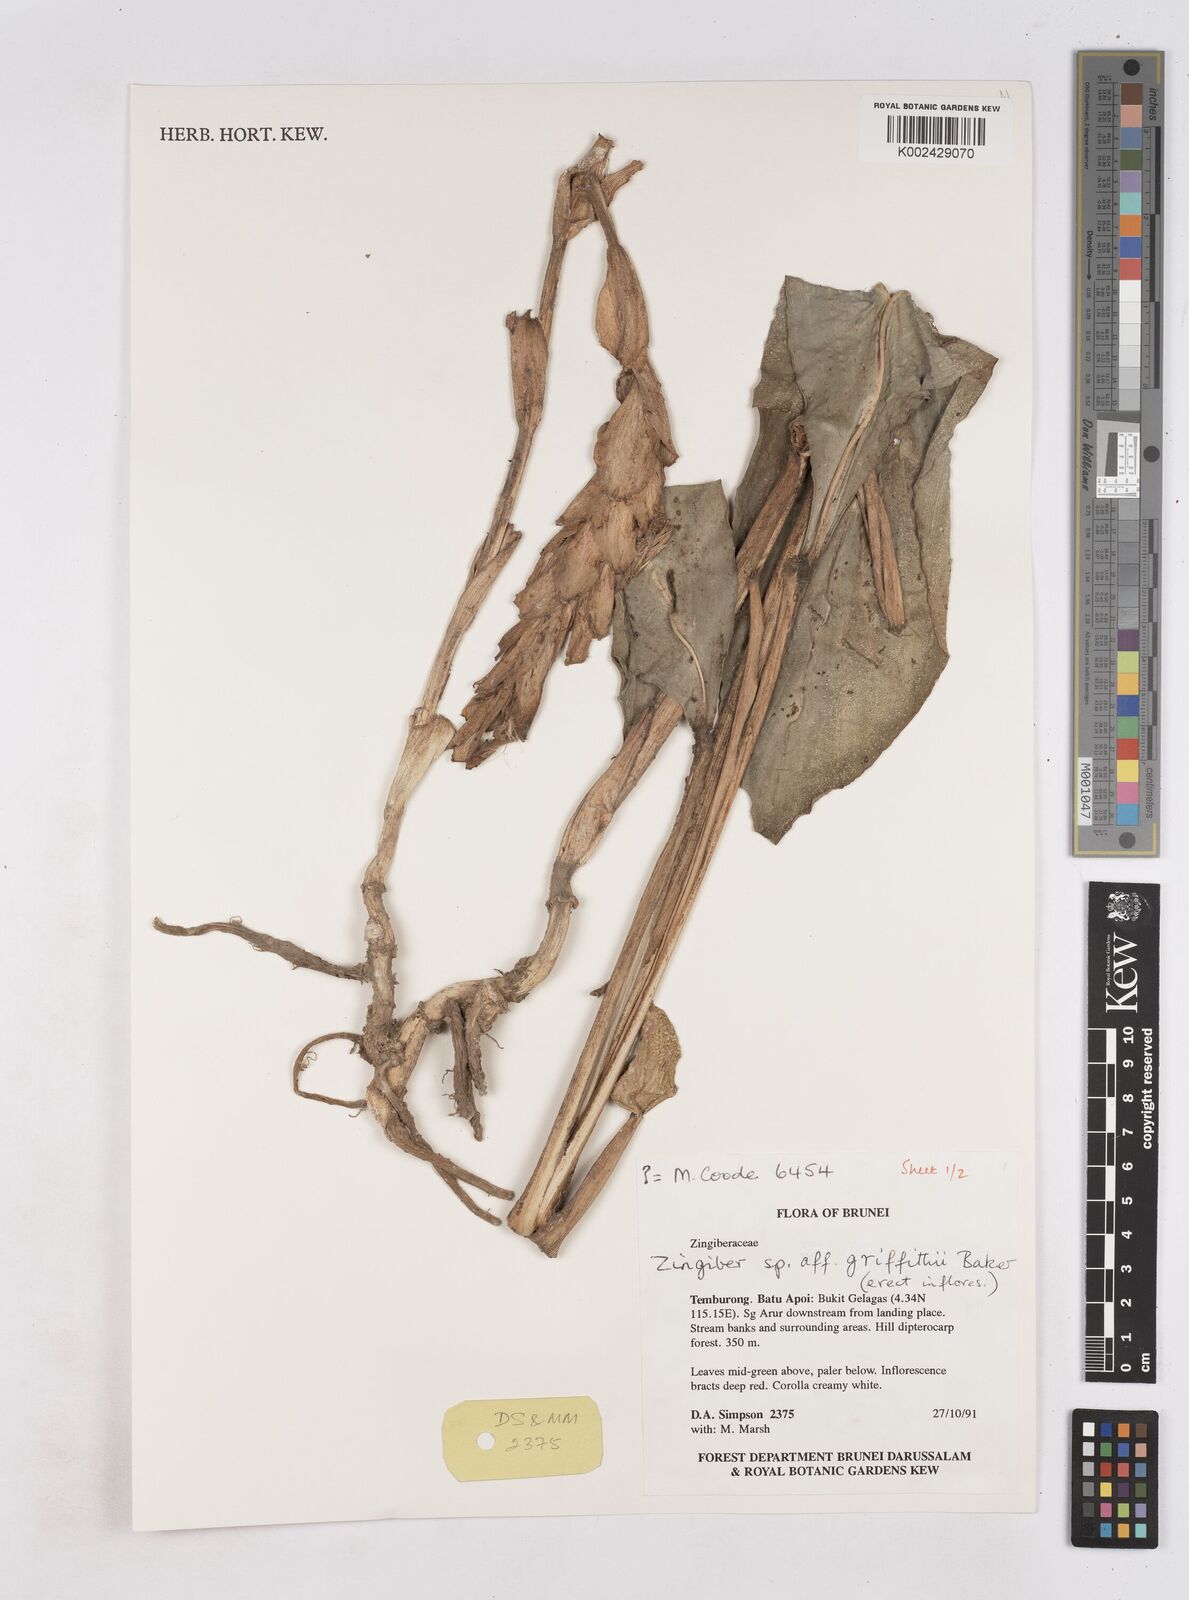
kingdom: Plantae
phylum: Tracheophyta
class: Liliopsida
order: Zingiberales
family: Zingiberaceae
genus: Zingiber
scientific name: Zingiber griffithii
